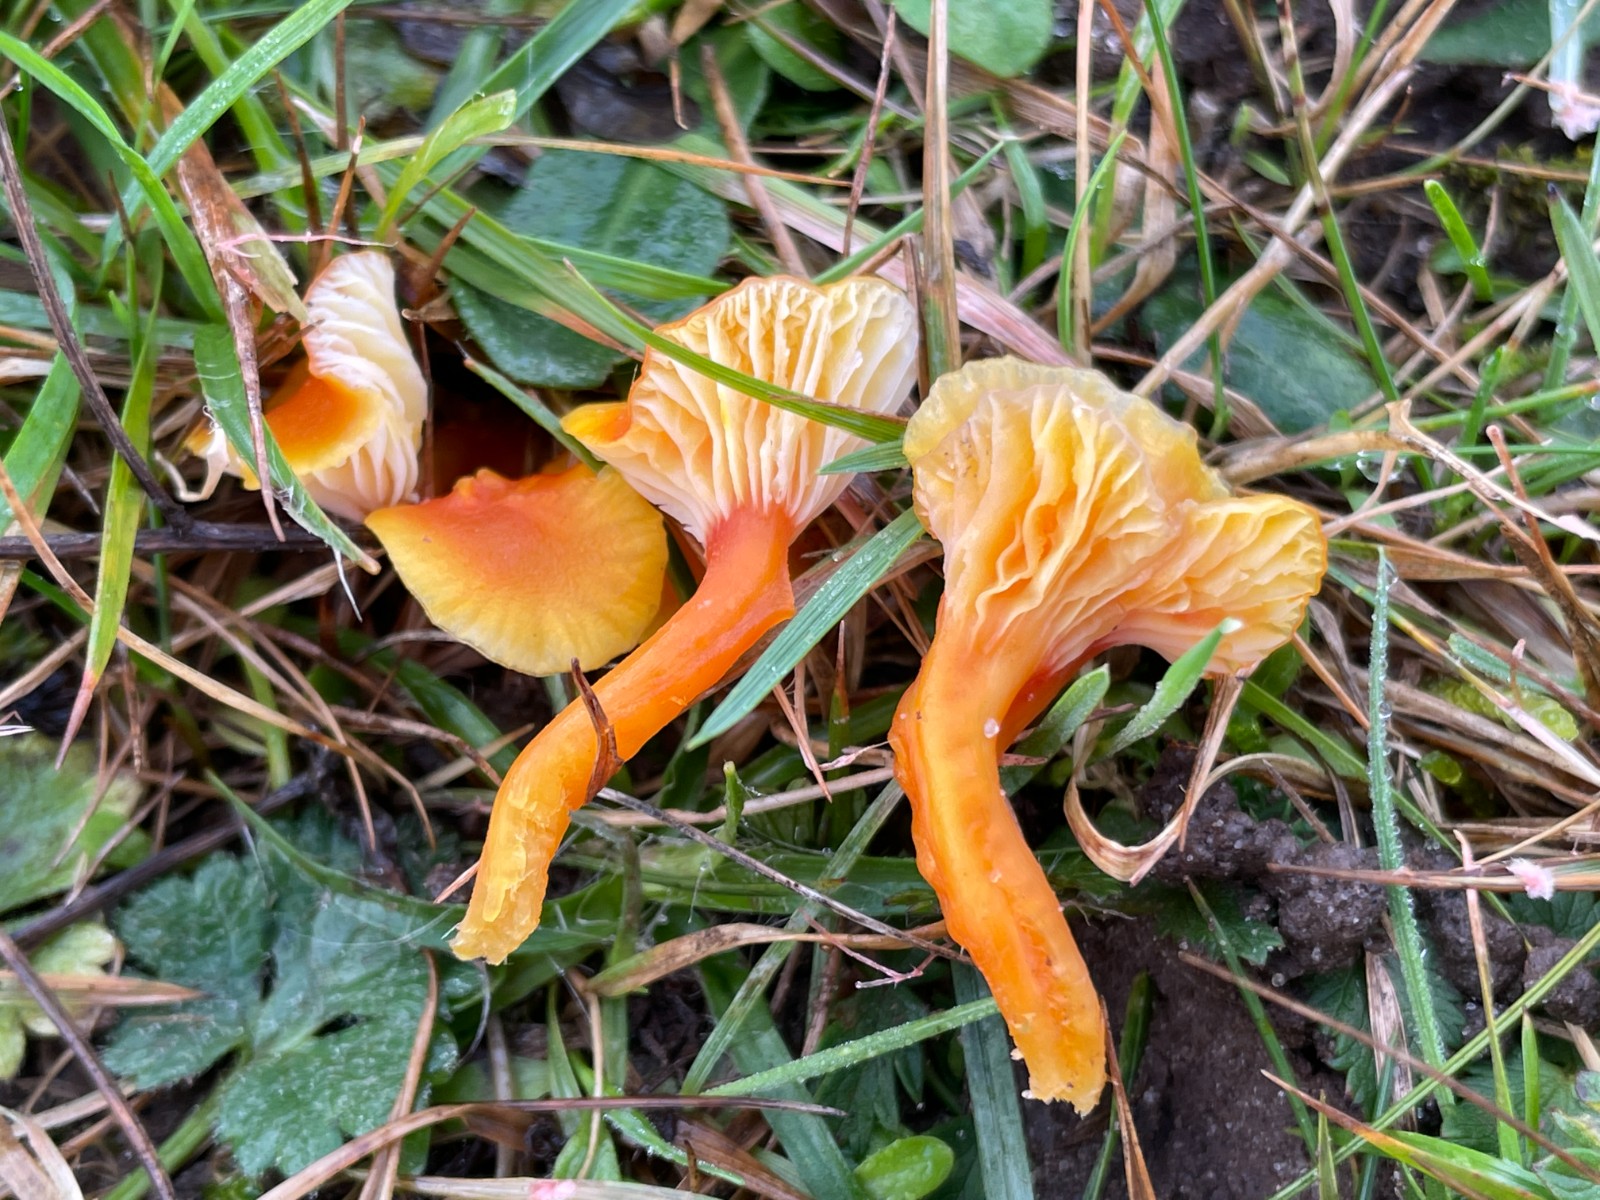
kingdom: Fungi
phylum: Basidiomycota
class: Agaricomycetes
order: Agaricales
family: Hygrophoraceae
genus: Hygrocybe
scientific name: Hygrocybe insipida
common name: liden vokshat
